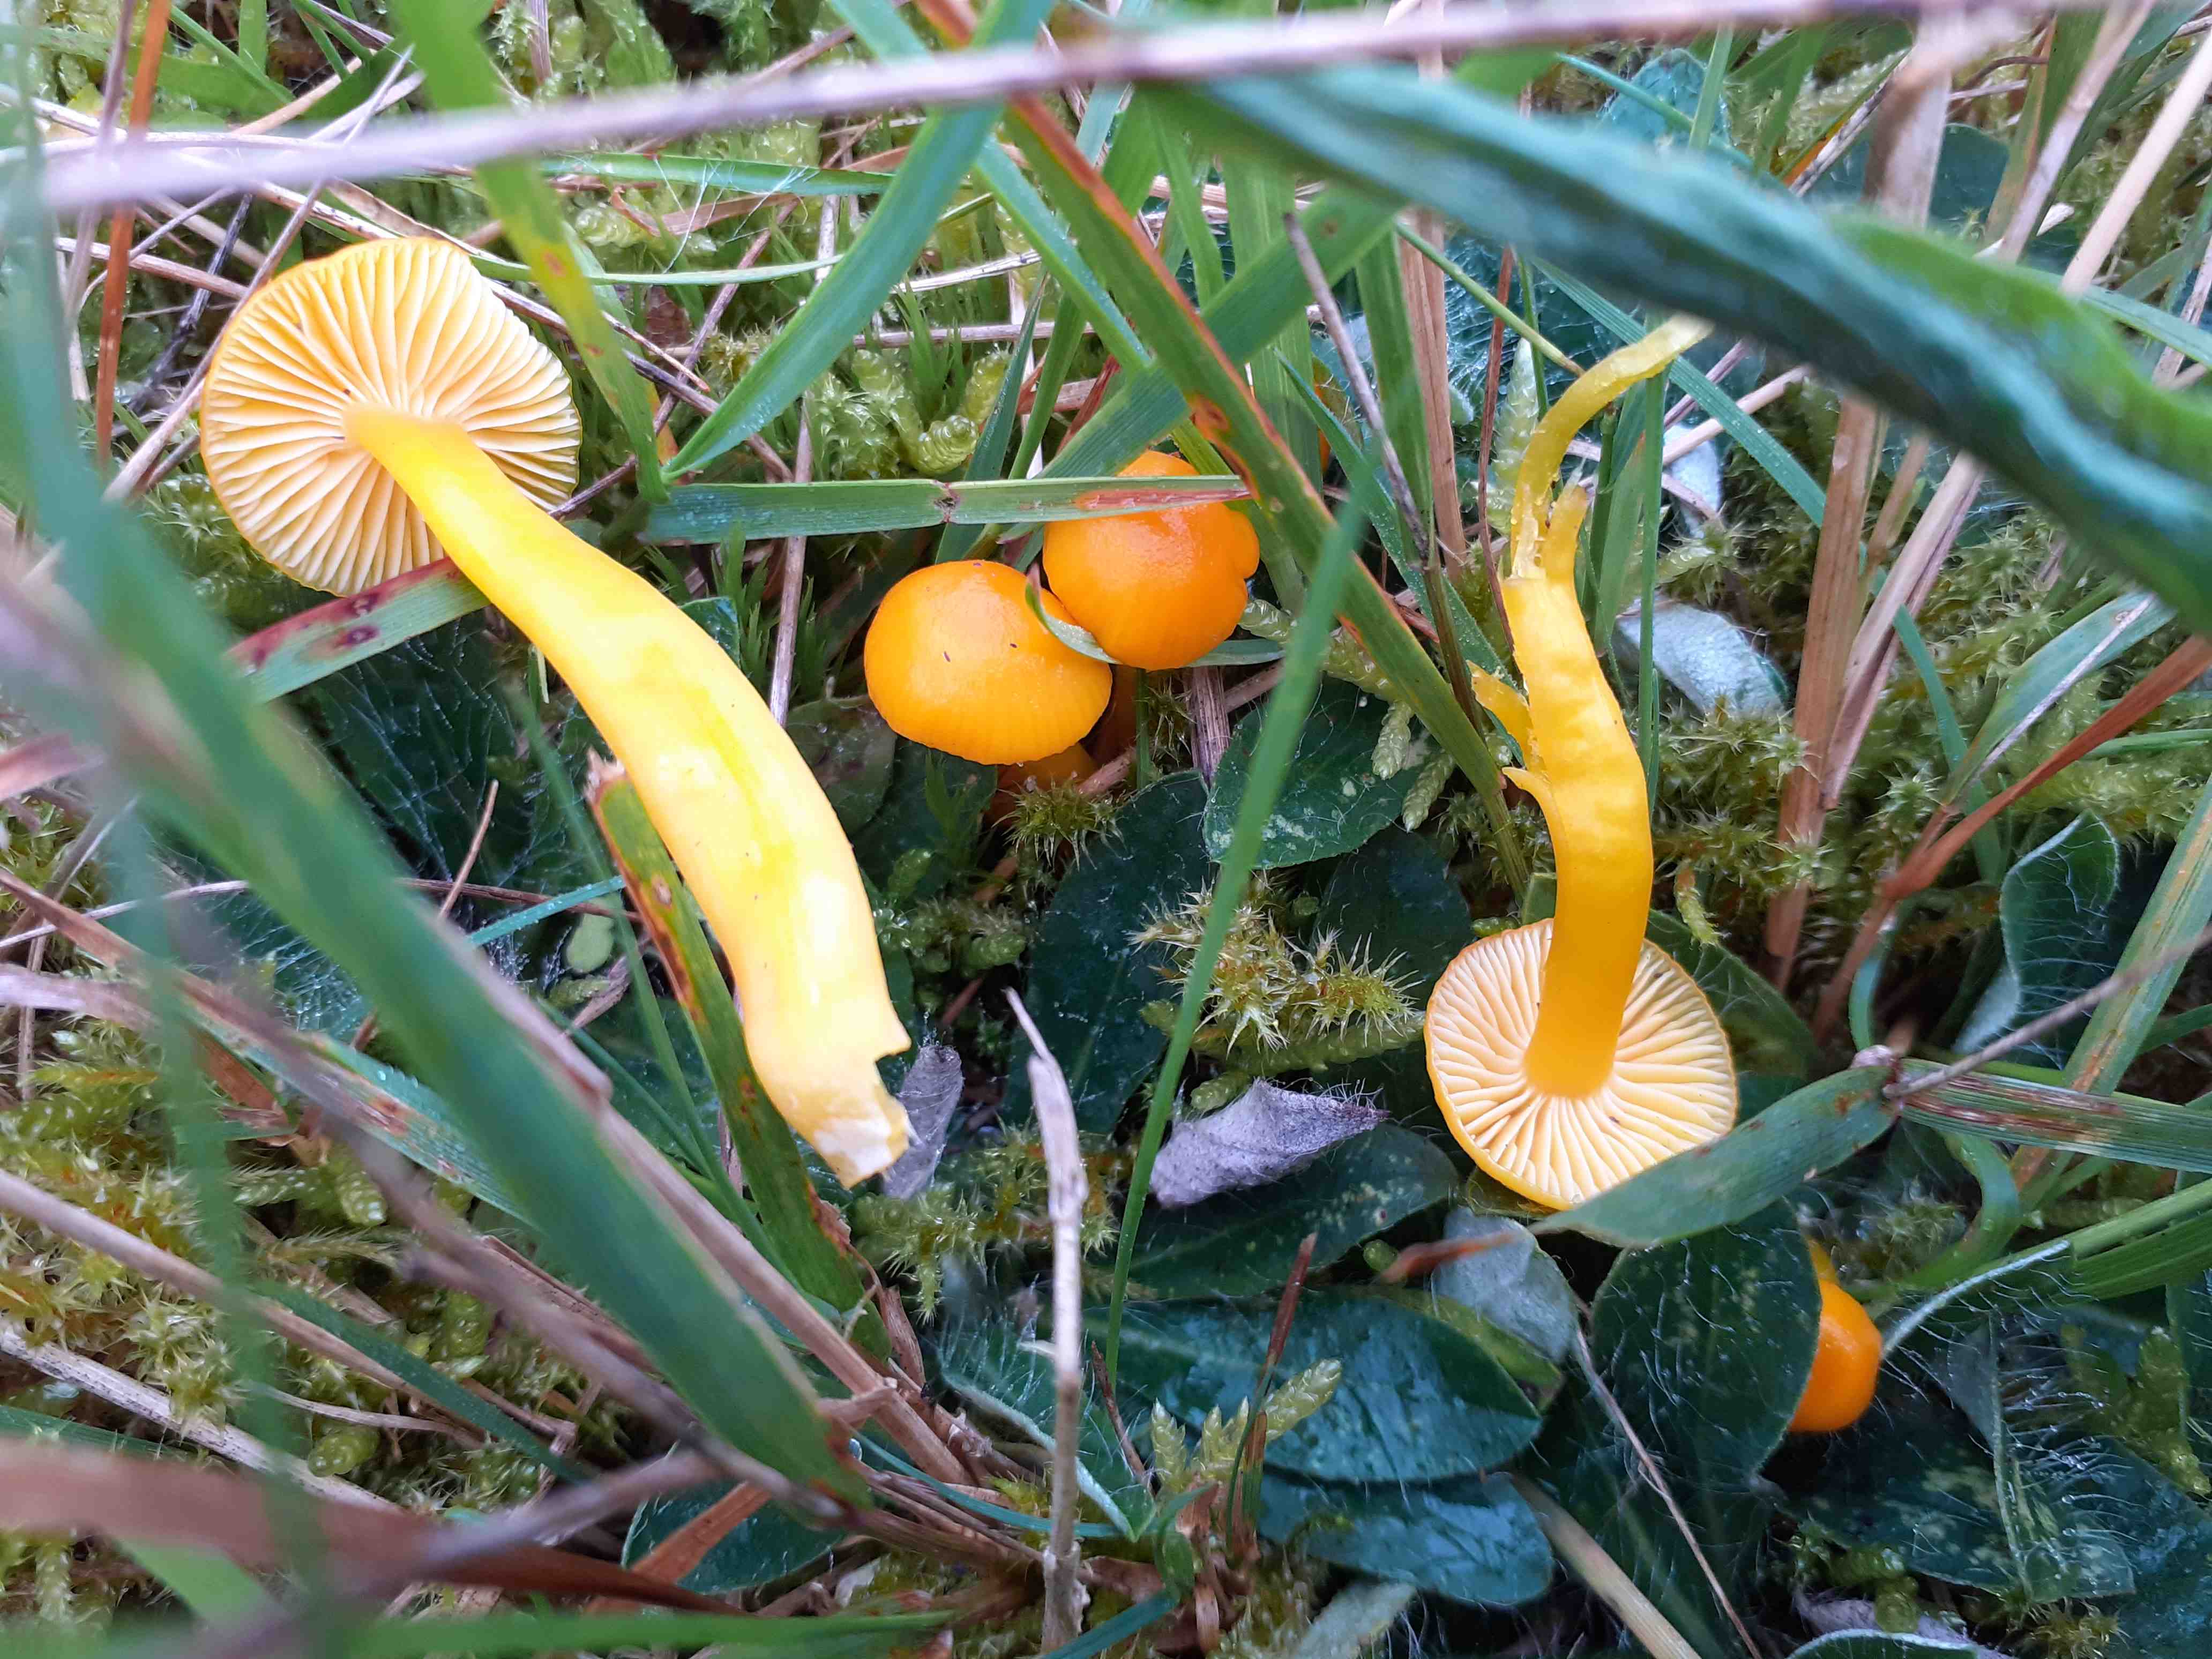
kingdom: Fungi
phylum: Basidiomycota
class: Agaricomycetes
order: Agaricales
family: Hygrophoraceae
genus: Hygrocybe
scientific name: Hygrocybe ceracea
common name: voksgul vokshat
